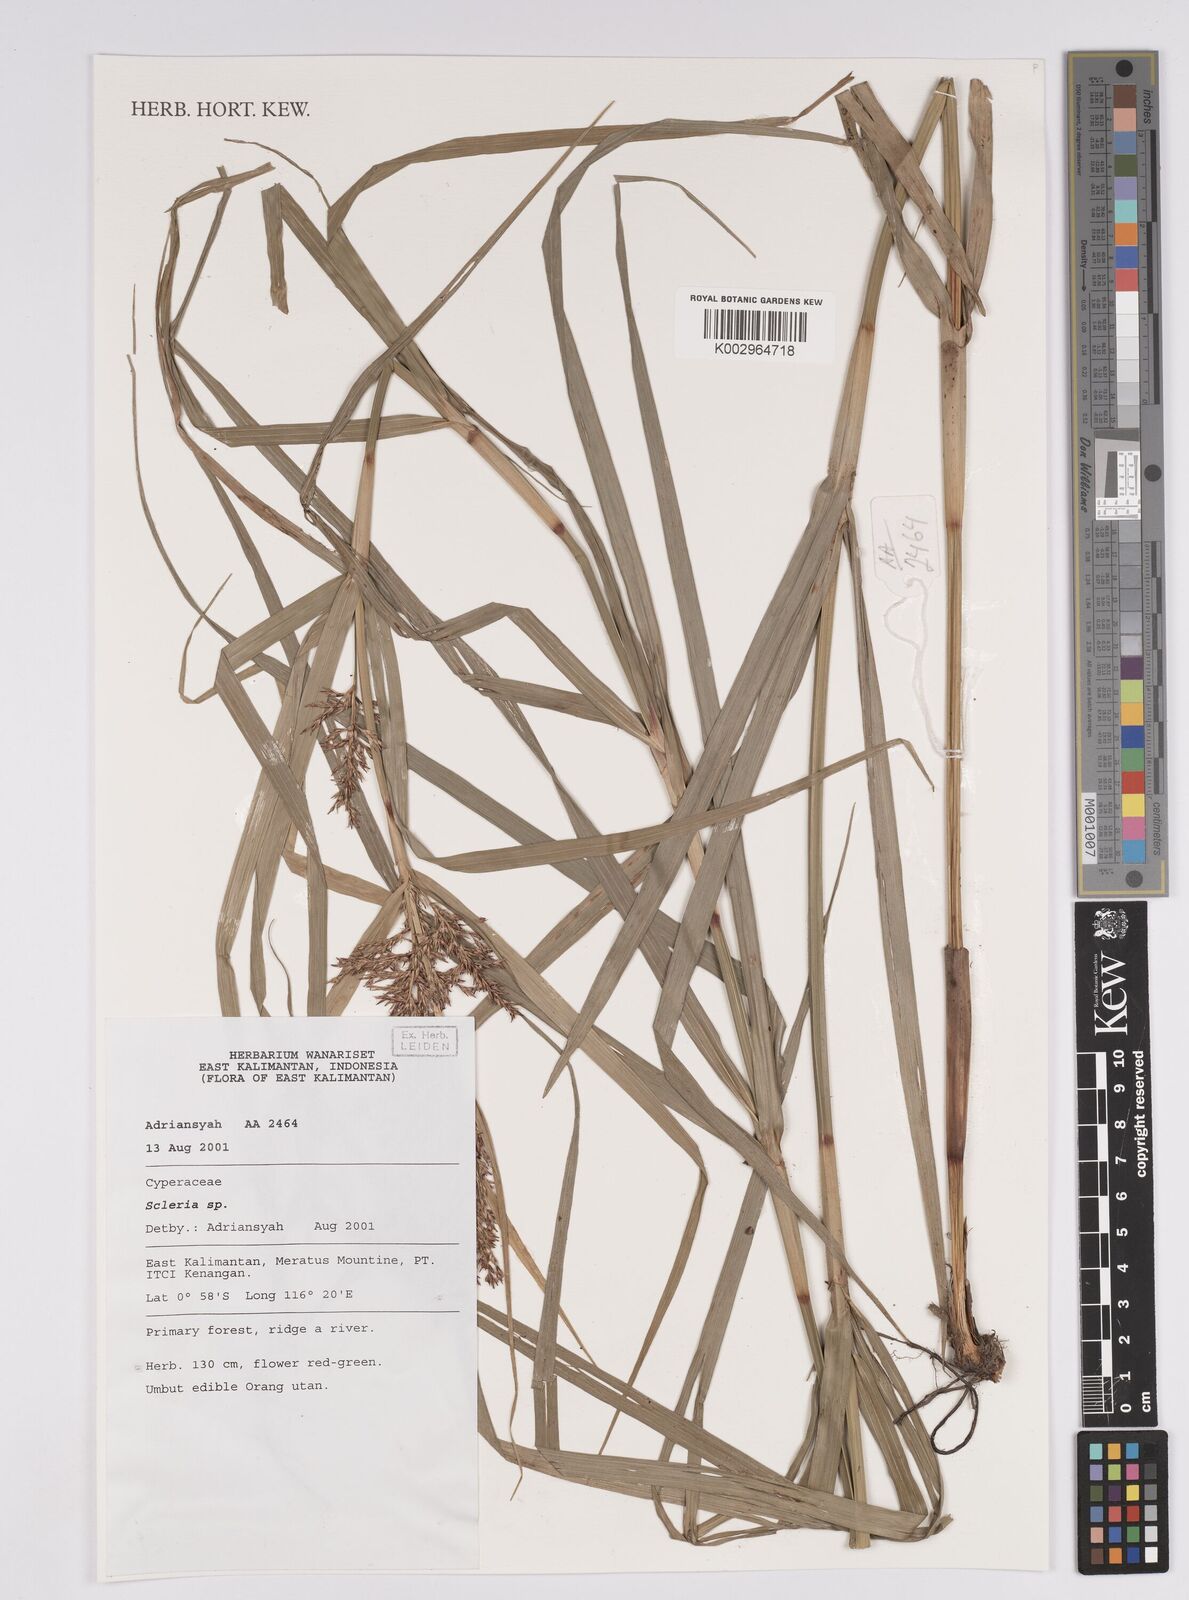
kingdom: Plantae
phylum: Tracheophyta
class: Liliopsida
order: Poales
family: Cyperaceae
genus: Scleria
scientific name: Scleria
